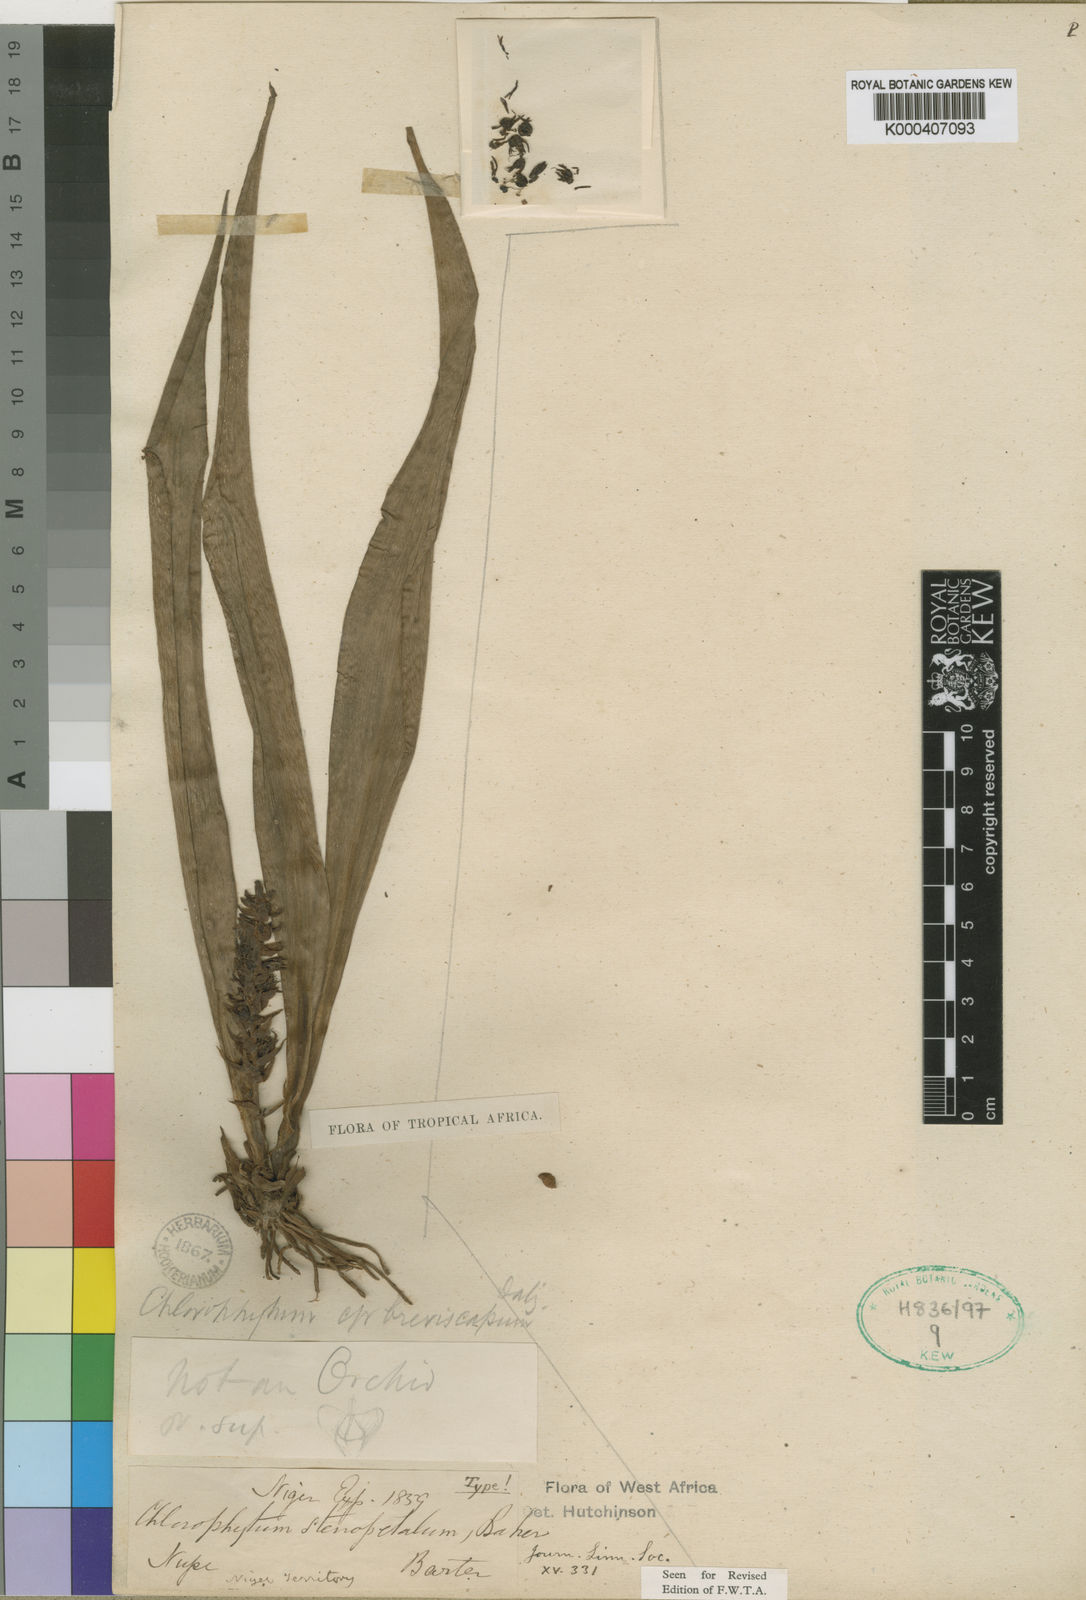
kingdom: Plantae
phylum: Tracheophyta
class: Liliopsida
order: Asparagales
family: Asparagaceae
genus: Chlorophytum
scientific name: Chlorophytum stenopetalum
